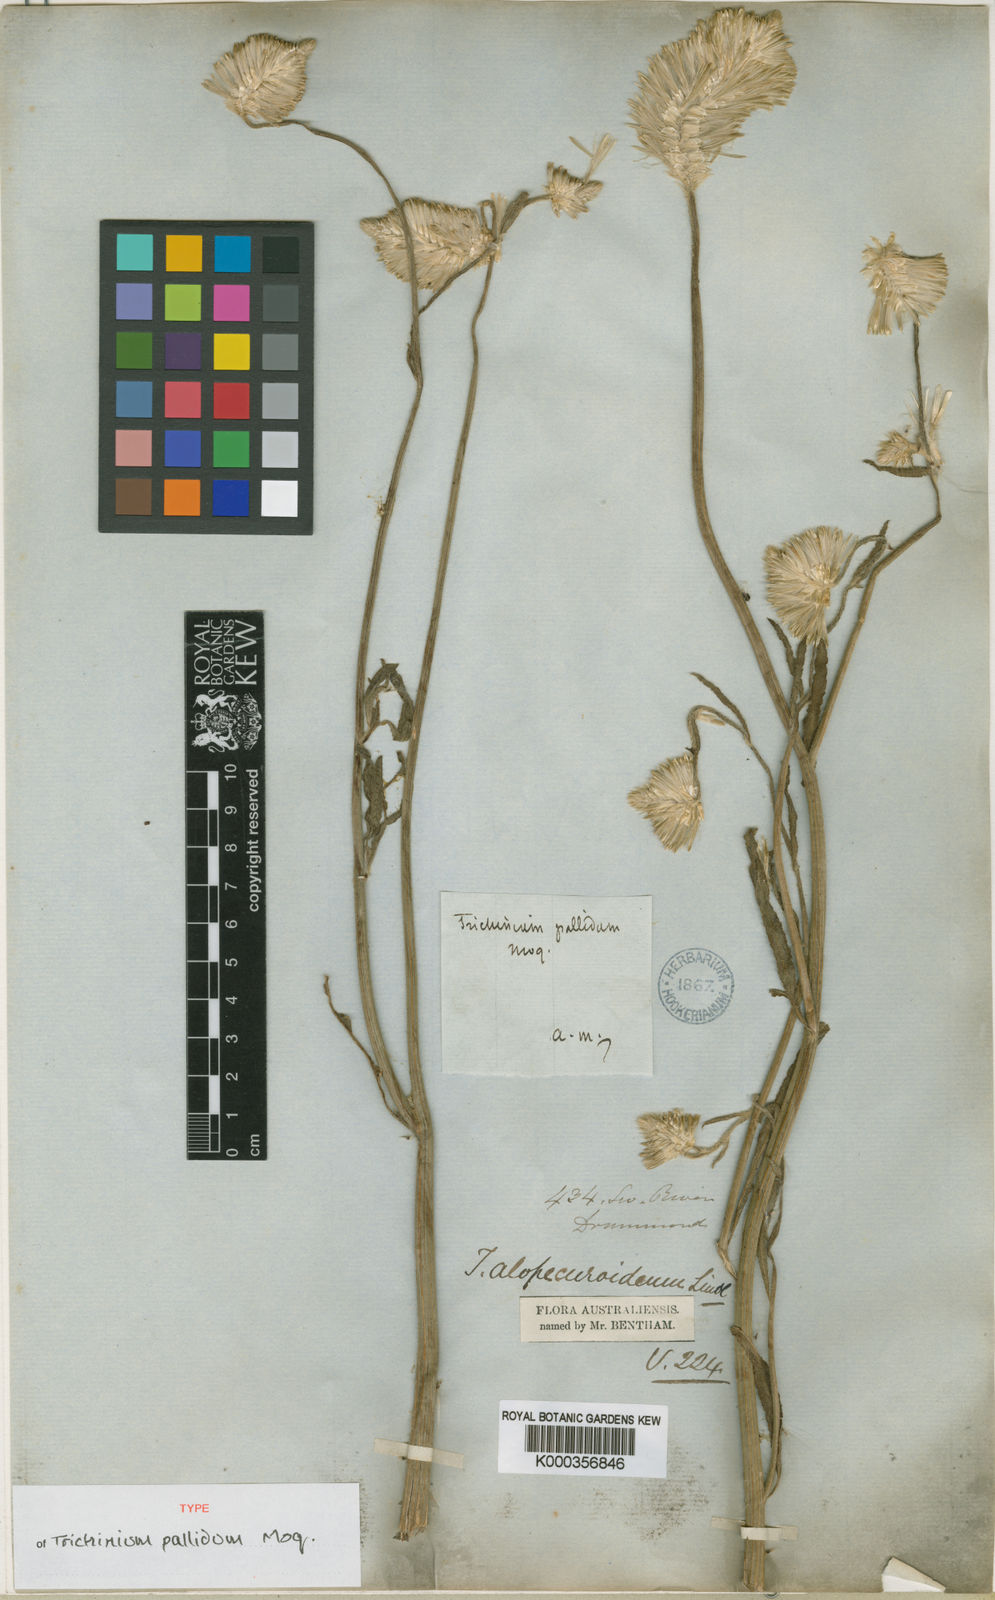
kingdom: Plantae
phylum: Tracheophyta
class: Magnoliopsida
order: Caryophyllales
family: Amaranthaceae
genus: Ptilotus
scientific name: Ptilotus polystachyus
